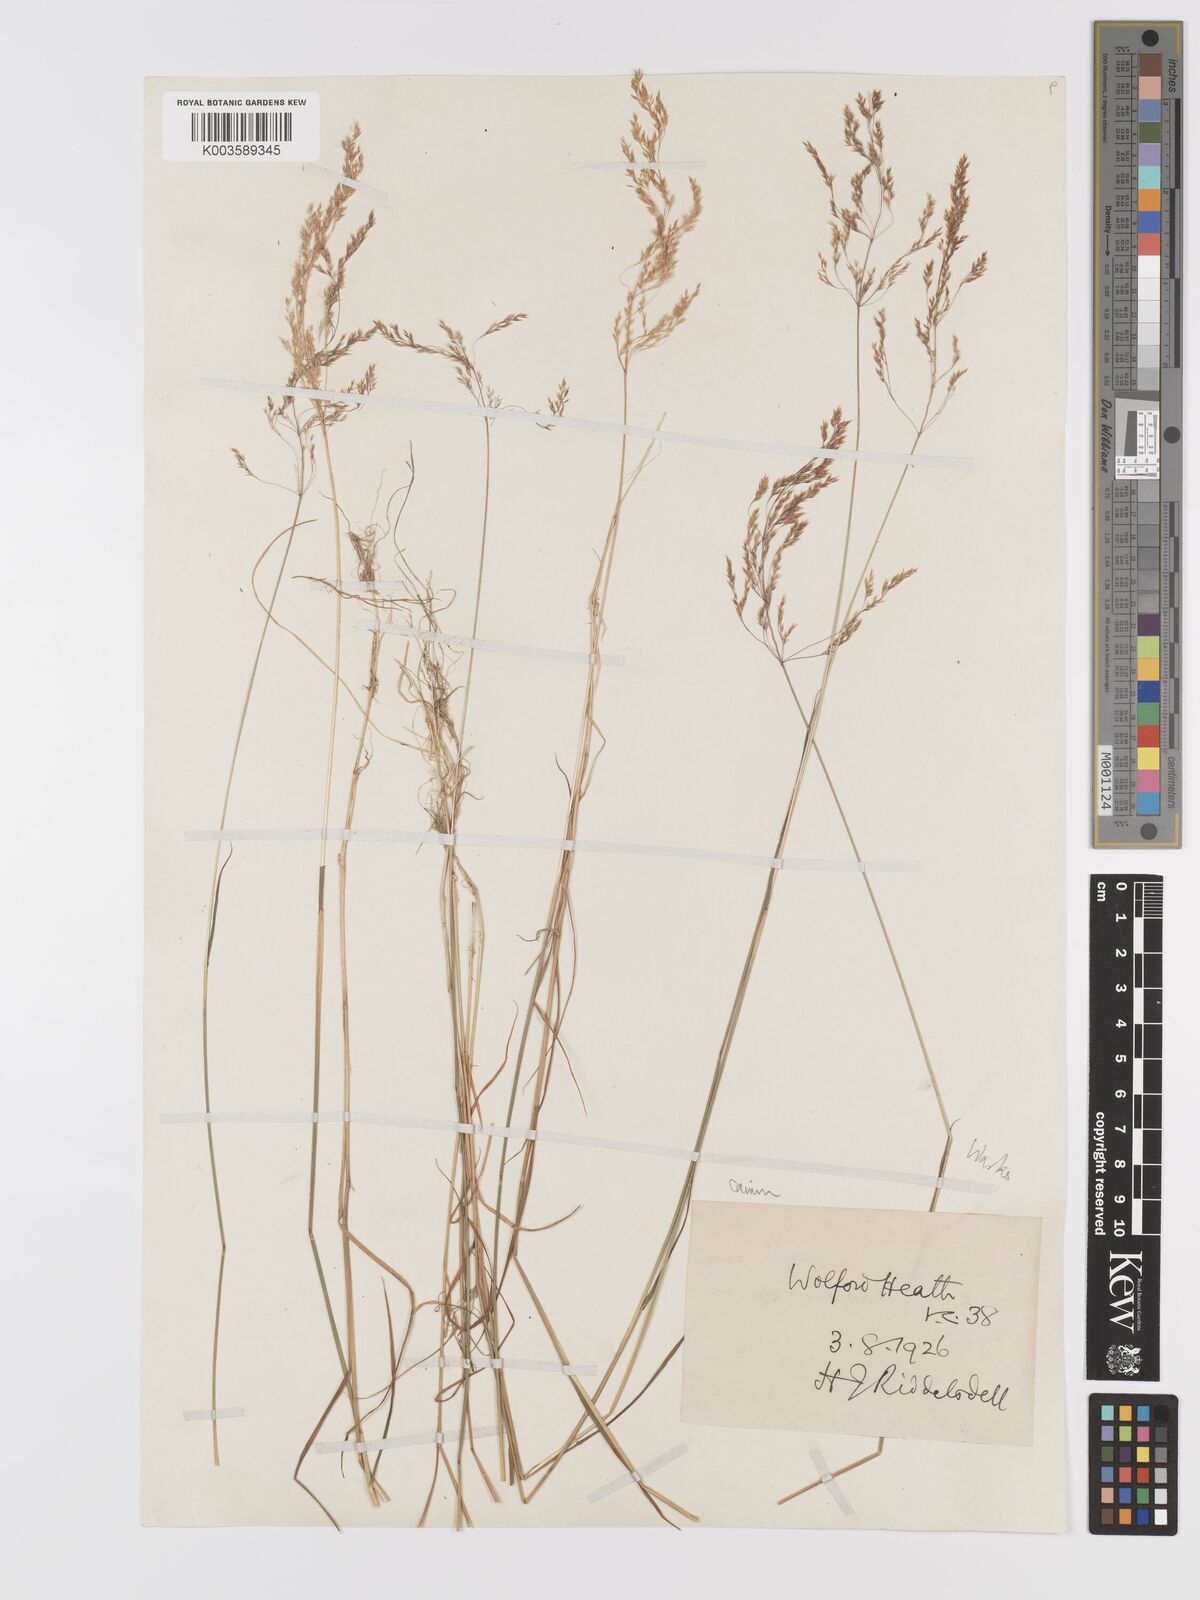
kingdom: Plantae
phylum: Tracheophyta
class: Liliopsida
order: Poales
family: Poaceae
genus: Agrostis
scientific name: Agrostis canina
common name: Velvet bent
